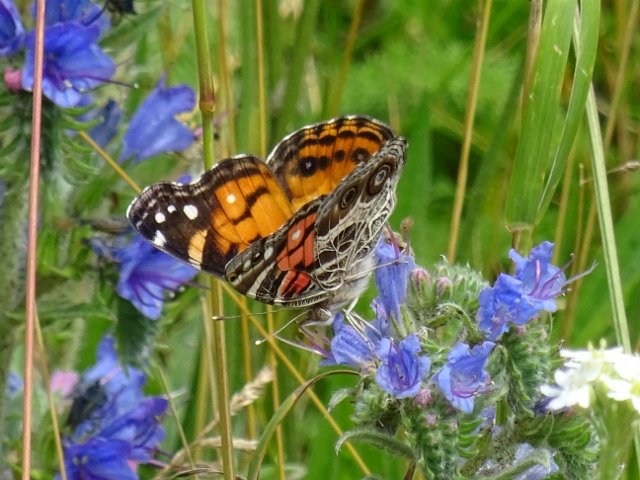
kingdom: Animalia
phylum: Arthropoda
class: Insecta
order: Lepidoptera
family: Nymphalidae
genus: Vanessa
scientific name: Vanessa virginiensis
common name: American Lady
